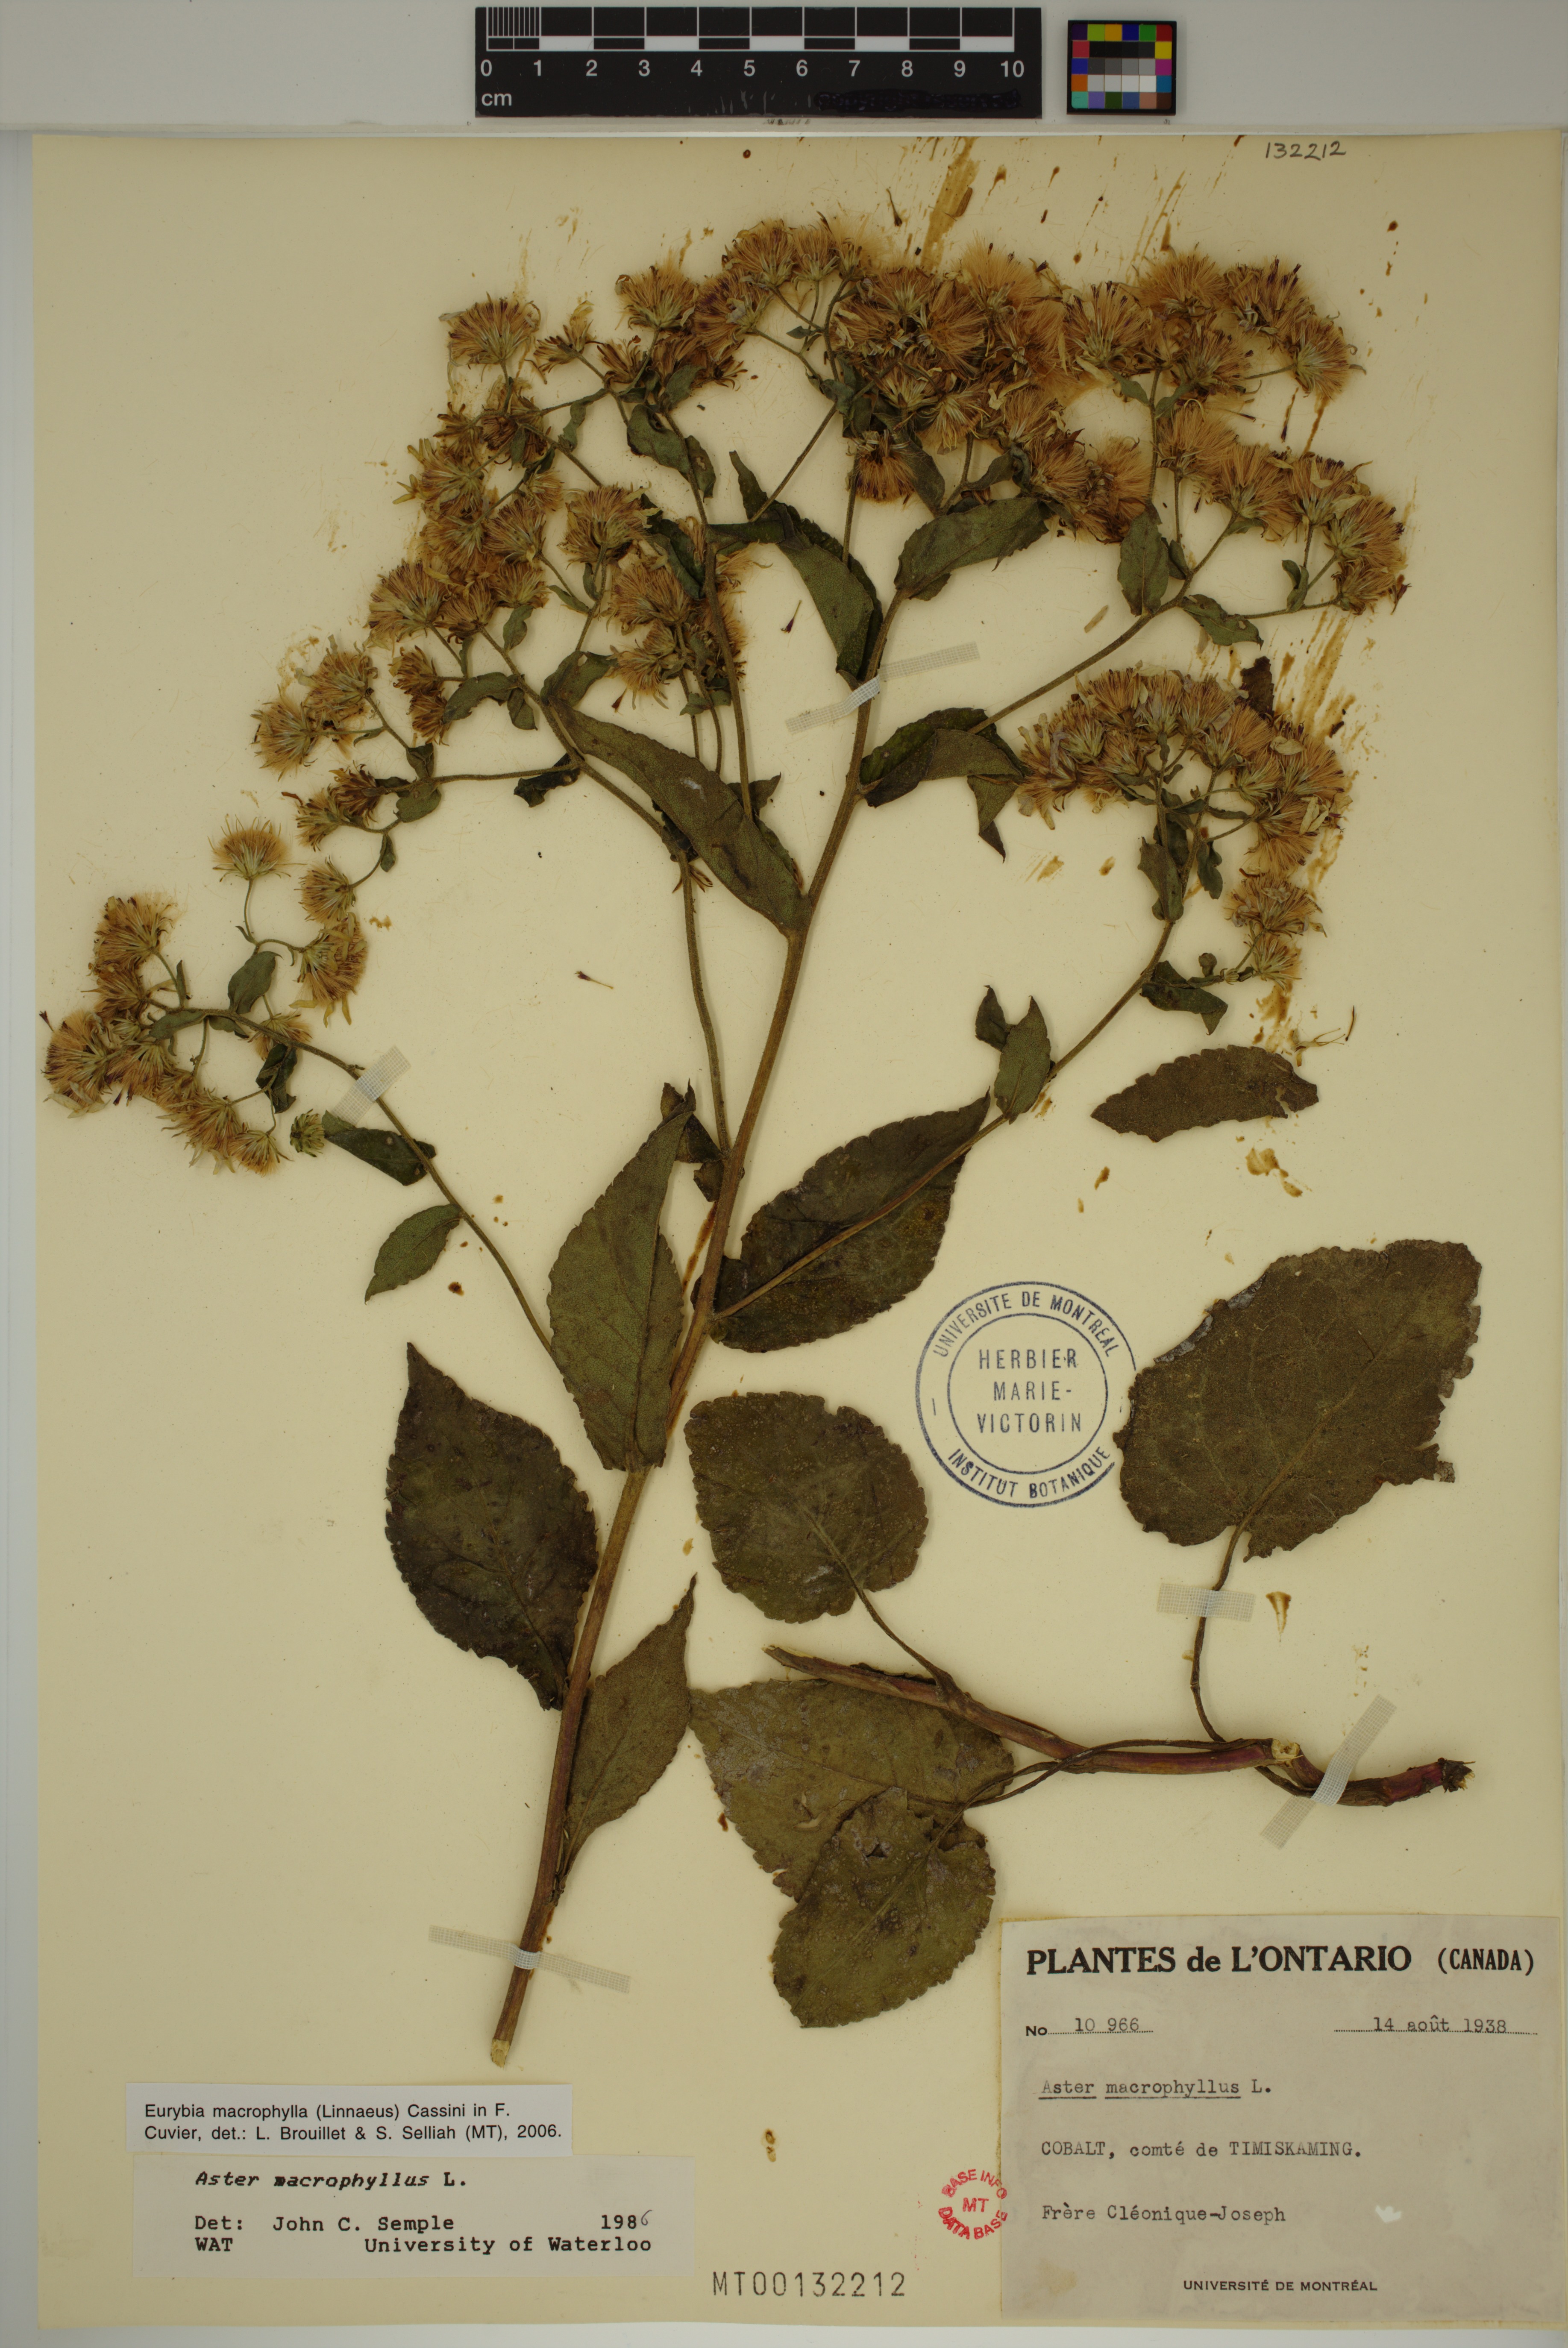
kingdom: Plantae
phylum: Tracheophyta
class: Magnoliopsida
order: Asterales
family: Asteraceae
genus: Eurybia
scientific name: Eurybia macrophylla
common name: Big-leaved aster
